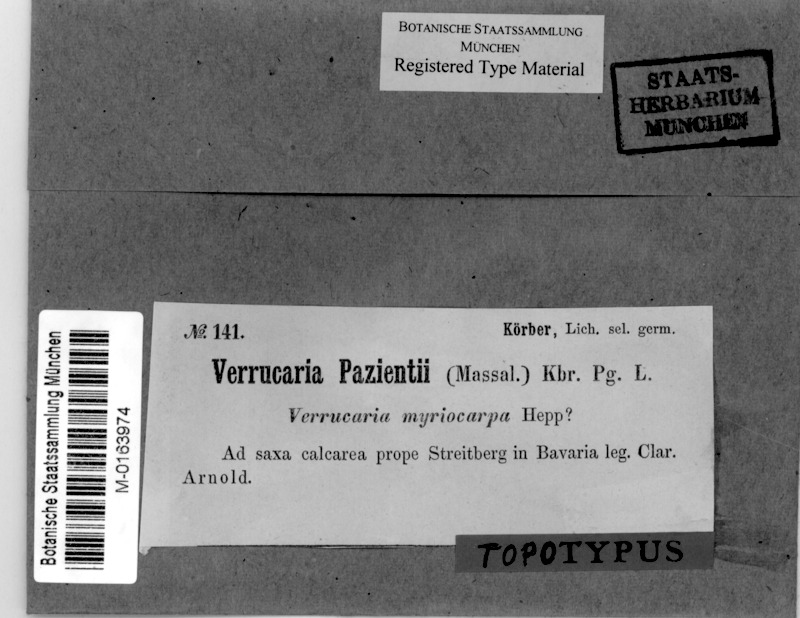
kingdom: Fungi
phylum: Ascomycota
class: Eurotiomycetes
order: Verrucariales
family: Verrucariaceae
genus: Verrucaria
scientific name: Verrucaria murina
